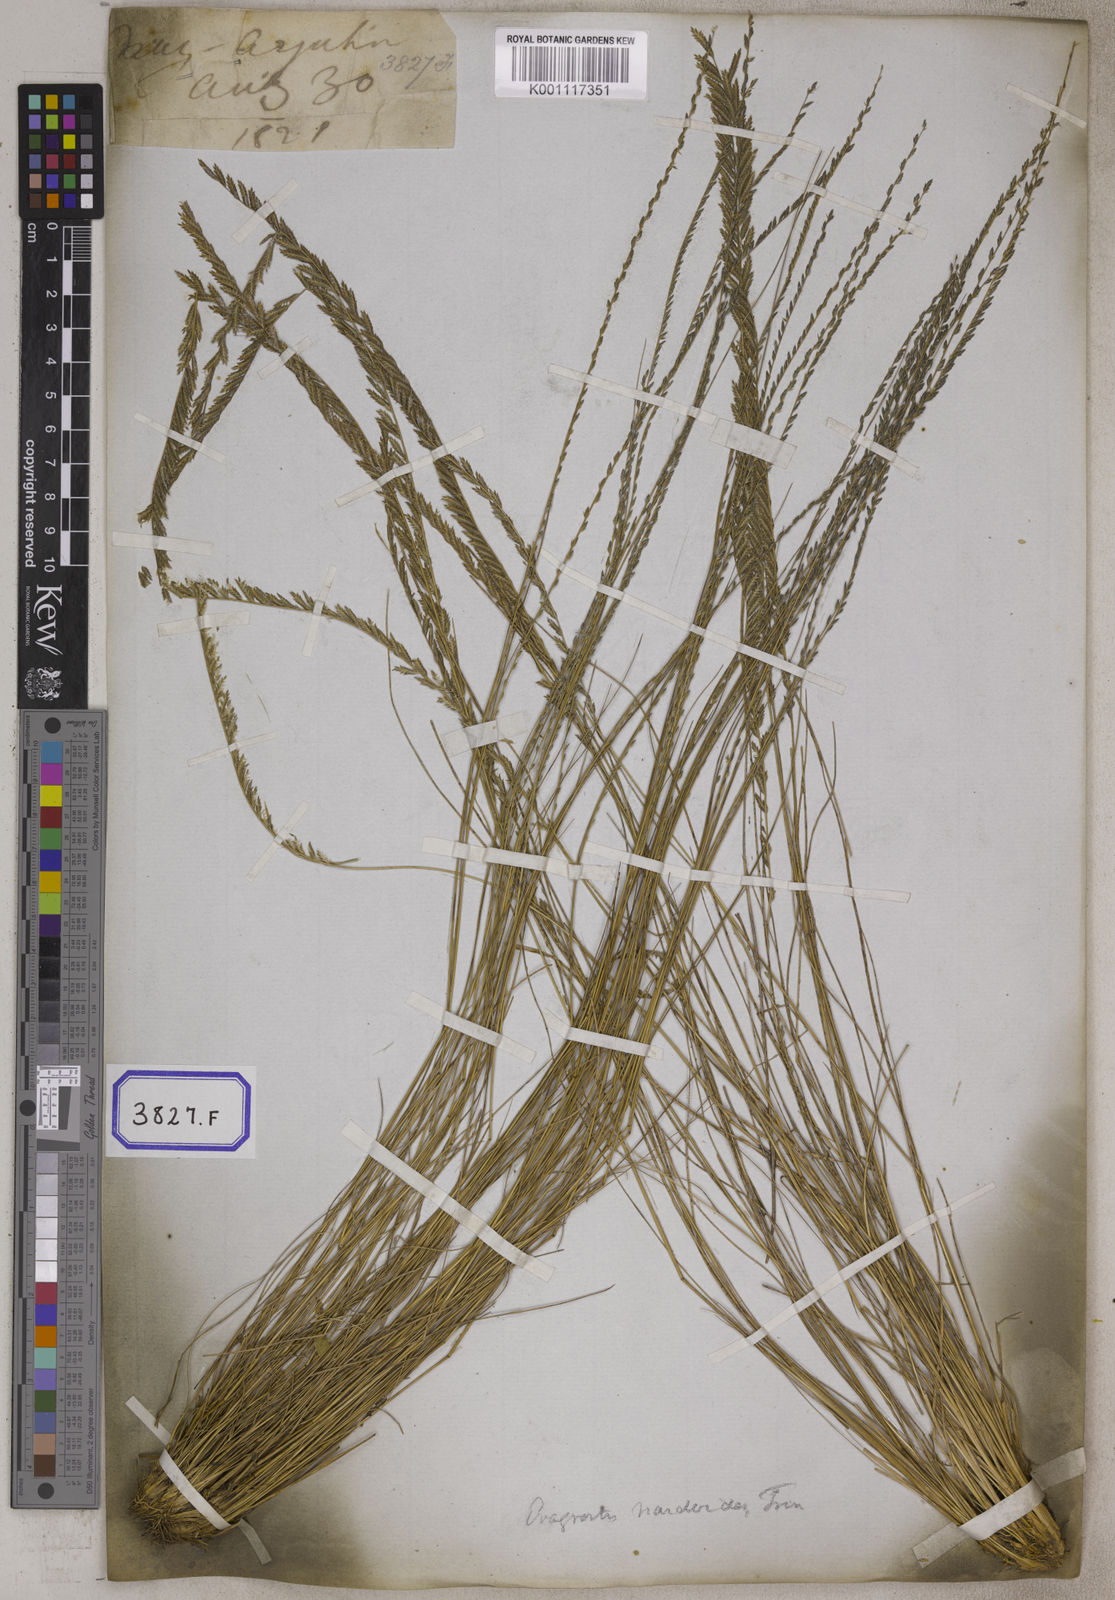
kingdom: Plantae
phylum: Tracheophyta
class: Liliopsida
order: Poales
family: Poaceae
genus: Eragrostis
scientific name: Eragrostis
